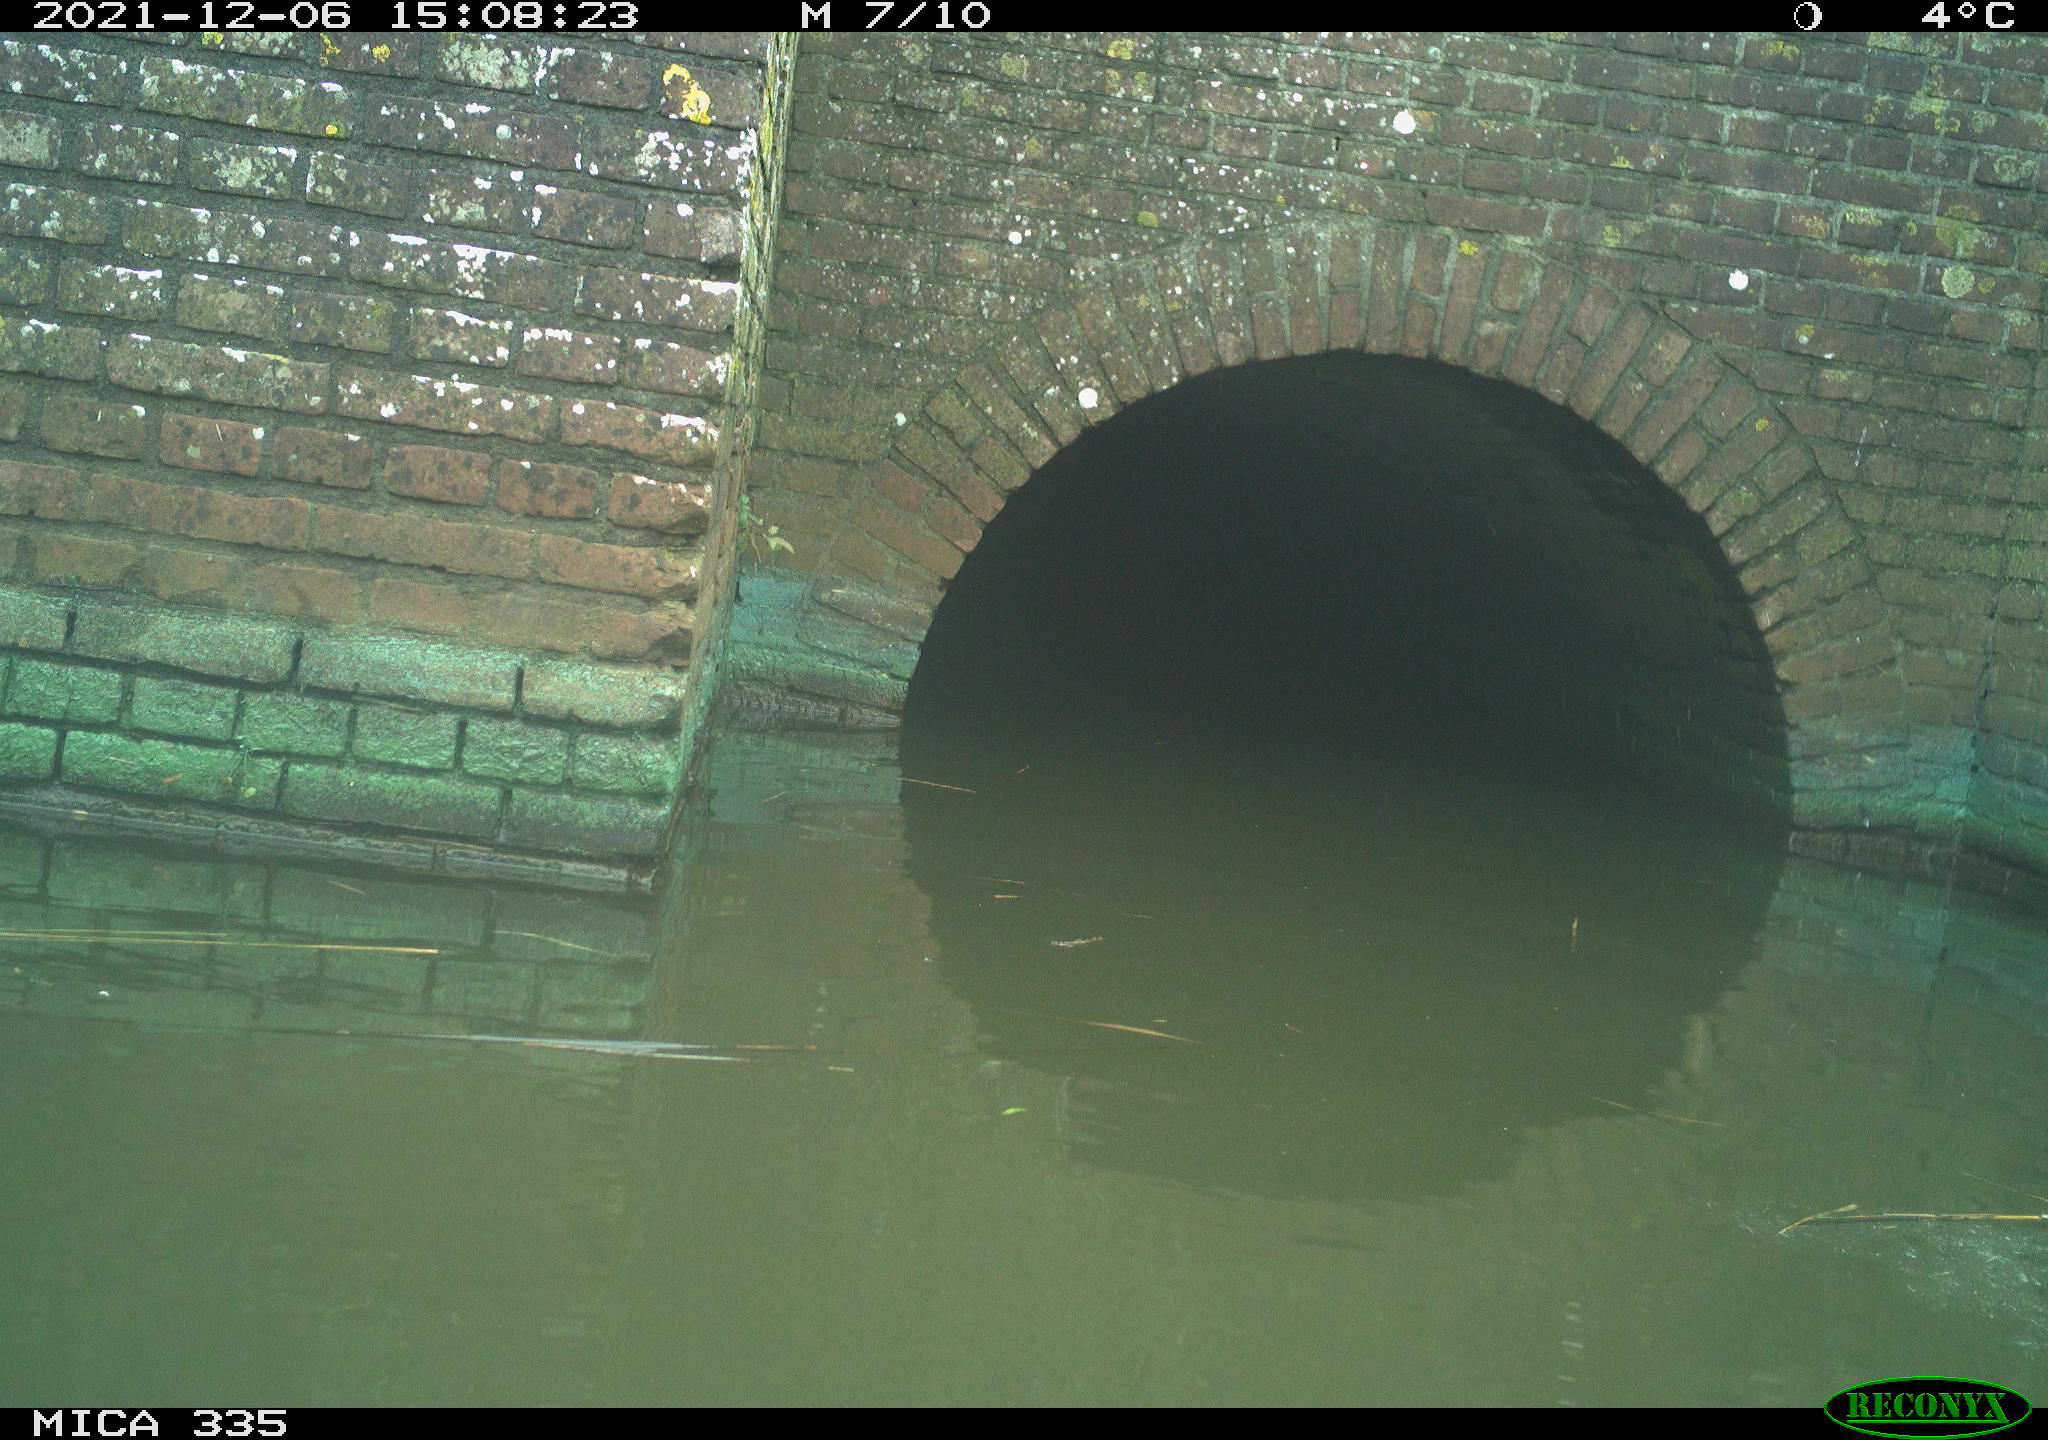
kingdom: Animalia
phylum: Chordata
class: Aves
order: Anseriformes
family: Anatidae
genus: Anas
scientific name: Anas platyrhynchos
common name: Mallard
